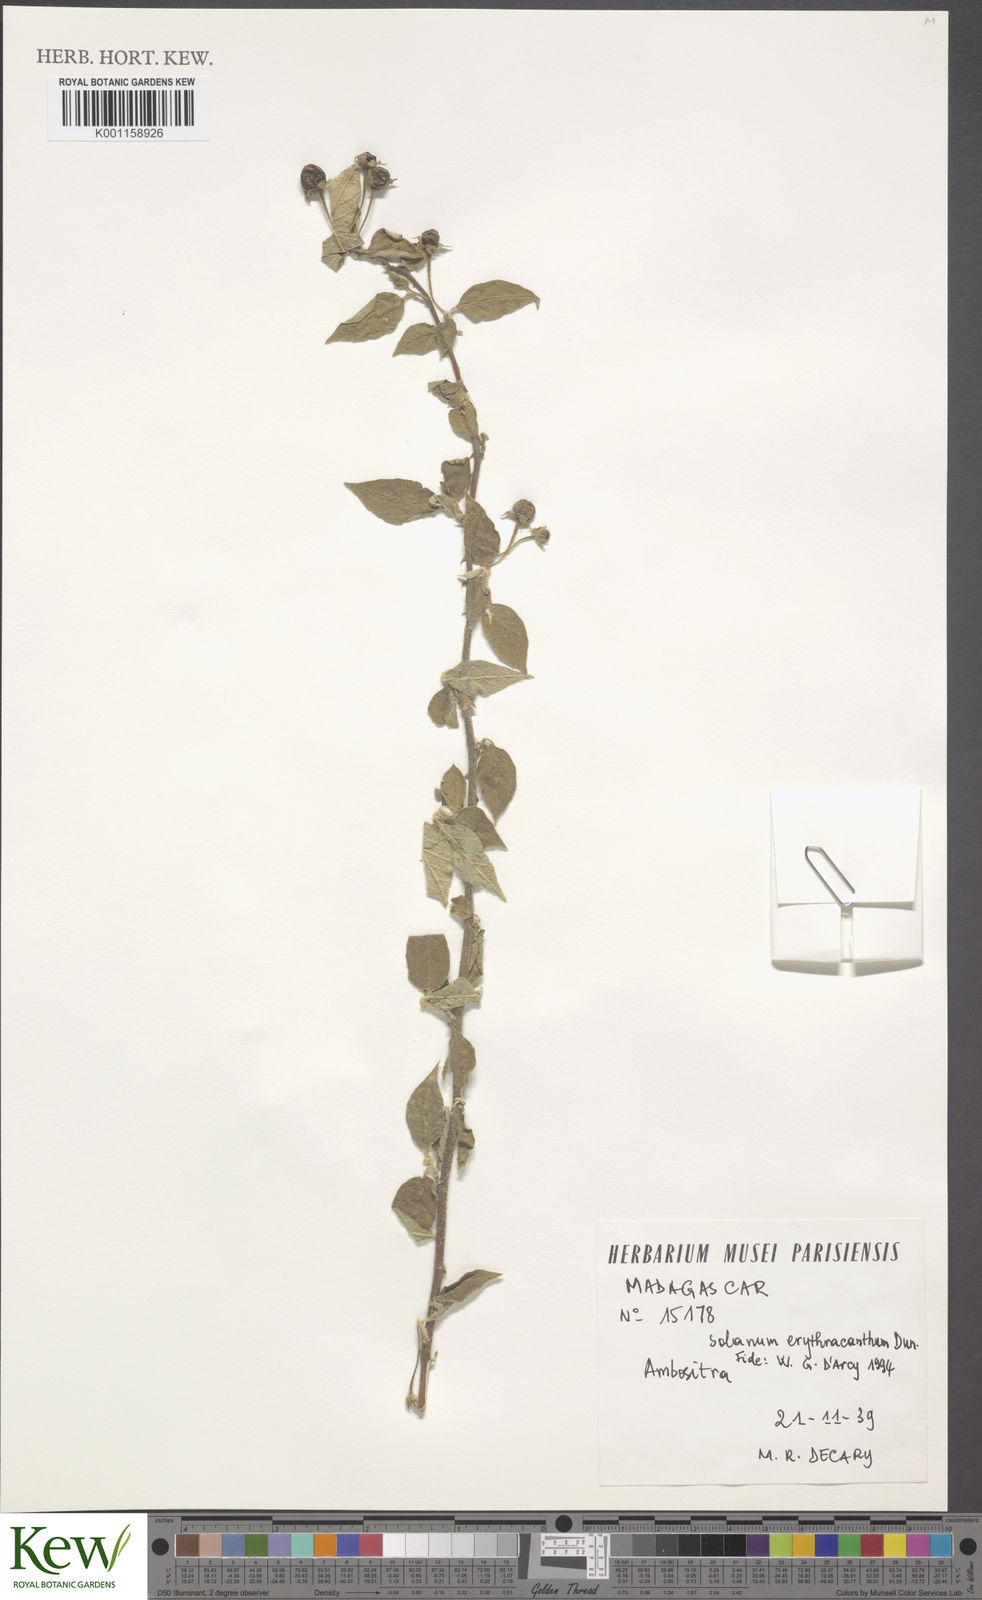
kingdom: Plantae
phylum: Tracheophyta
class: Magnoliopsida
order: Solanales
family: Solanaceae
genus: Solanum
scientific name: Solanum erythracanthum
